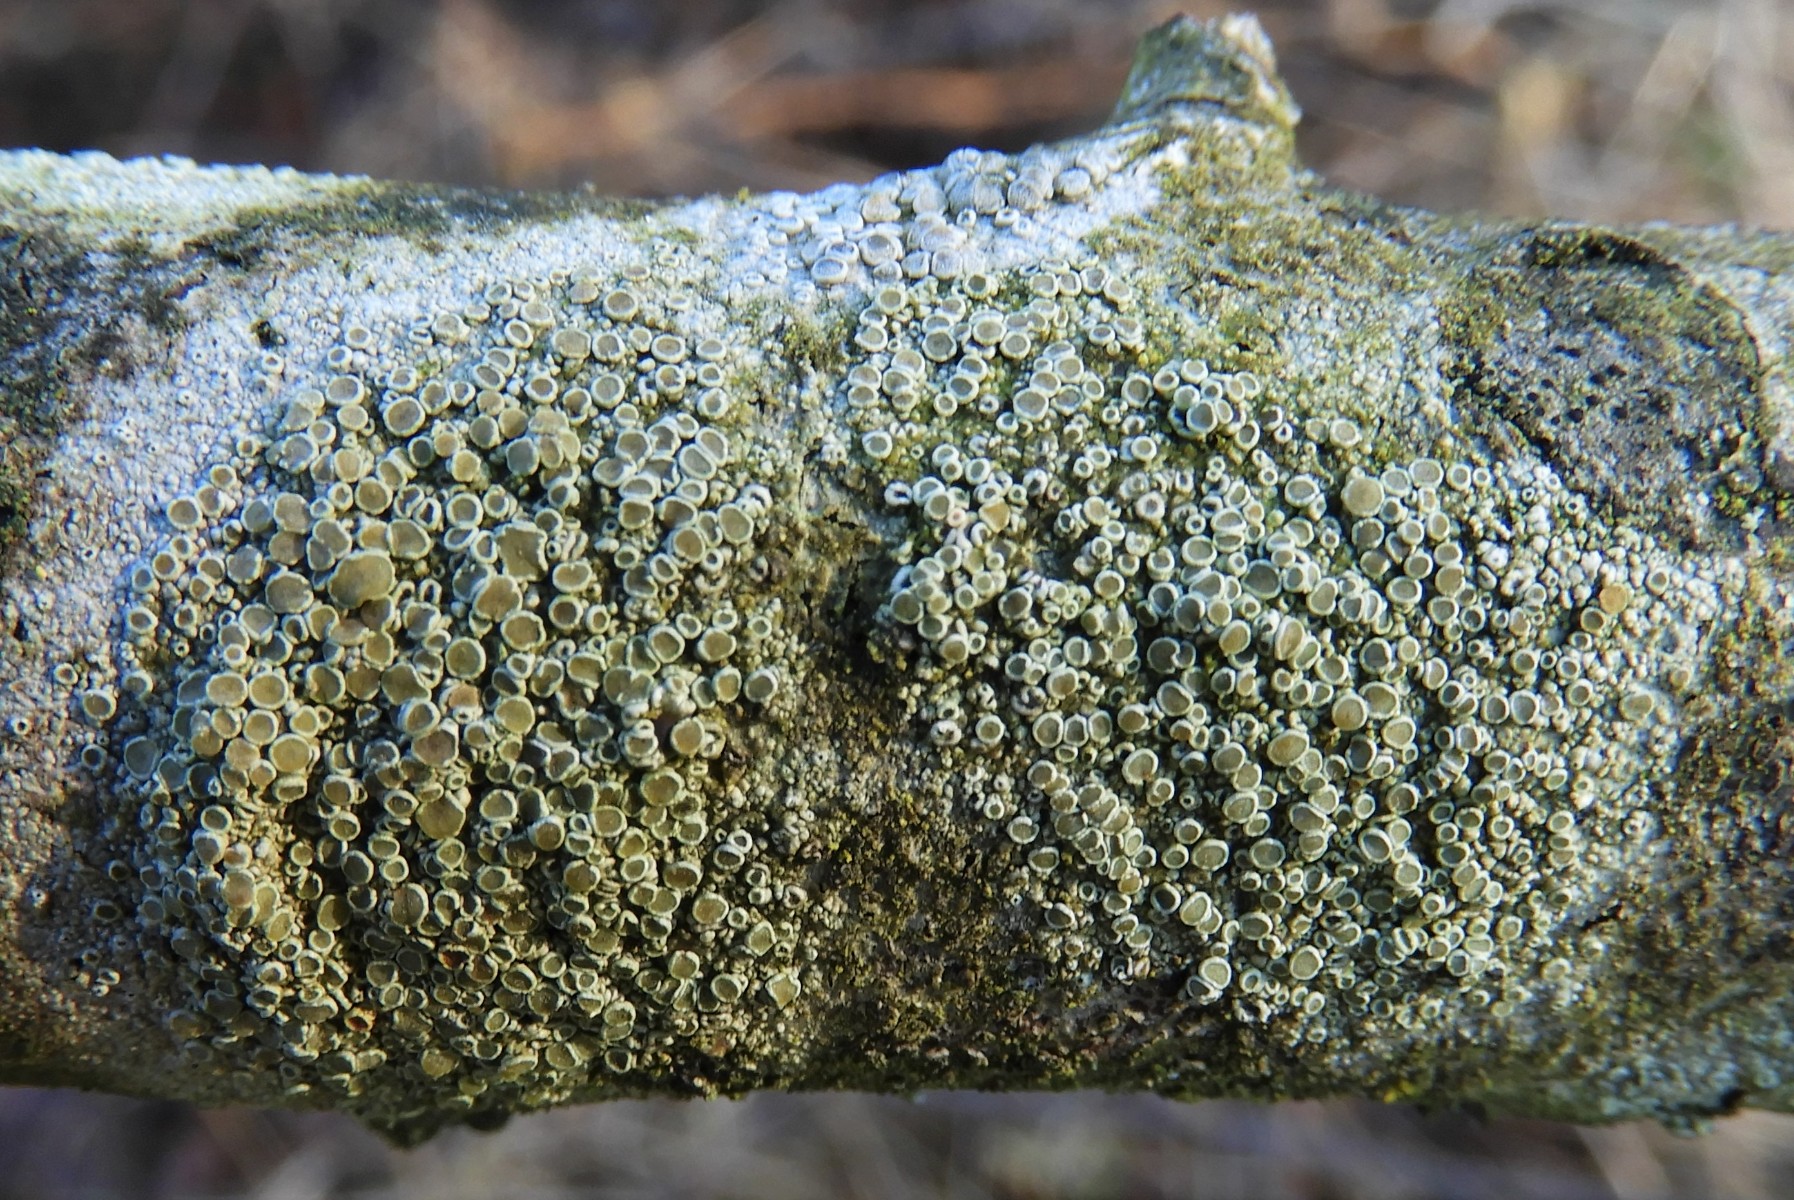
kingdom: Fungi
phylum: Ascomycota
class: Lecanoromycetes
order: Lecanorales
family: Lecanoraceae
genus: Lecanora
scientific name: Lecanora chlarotera
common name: brun kantskivelav
